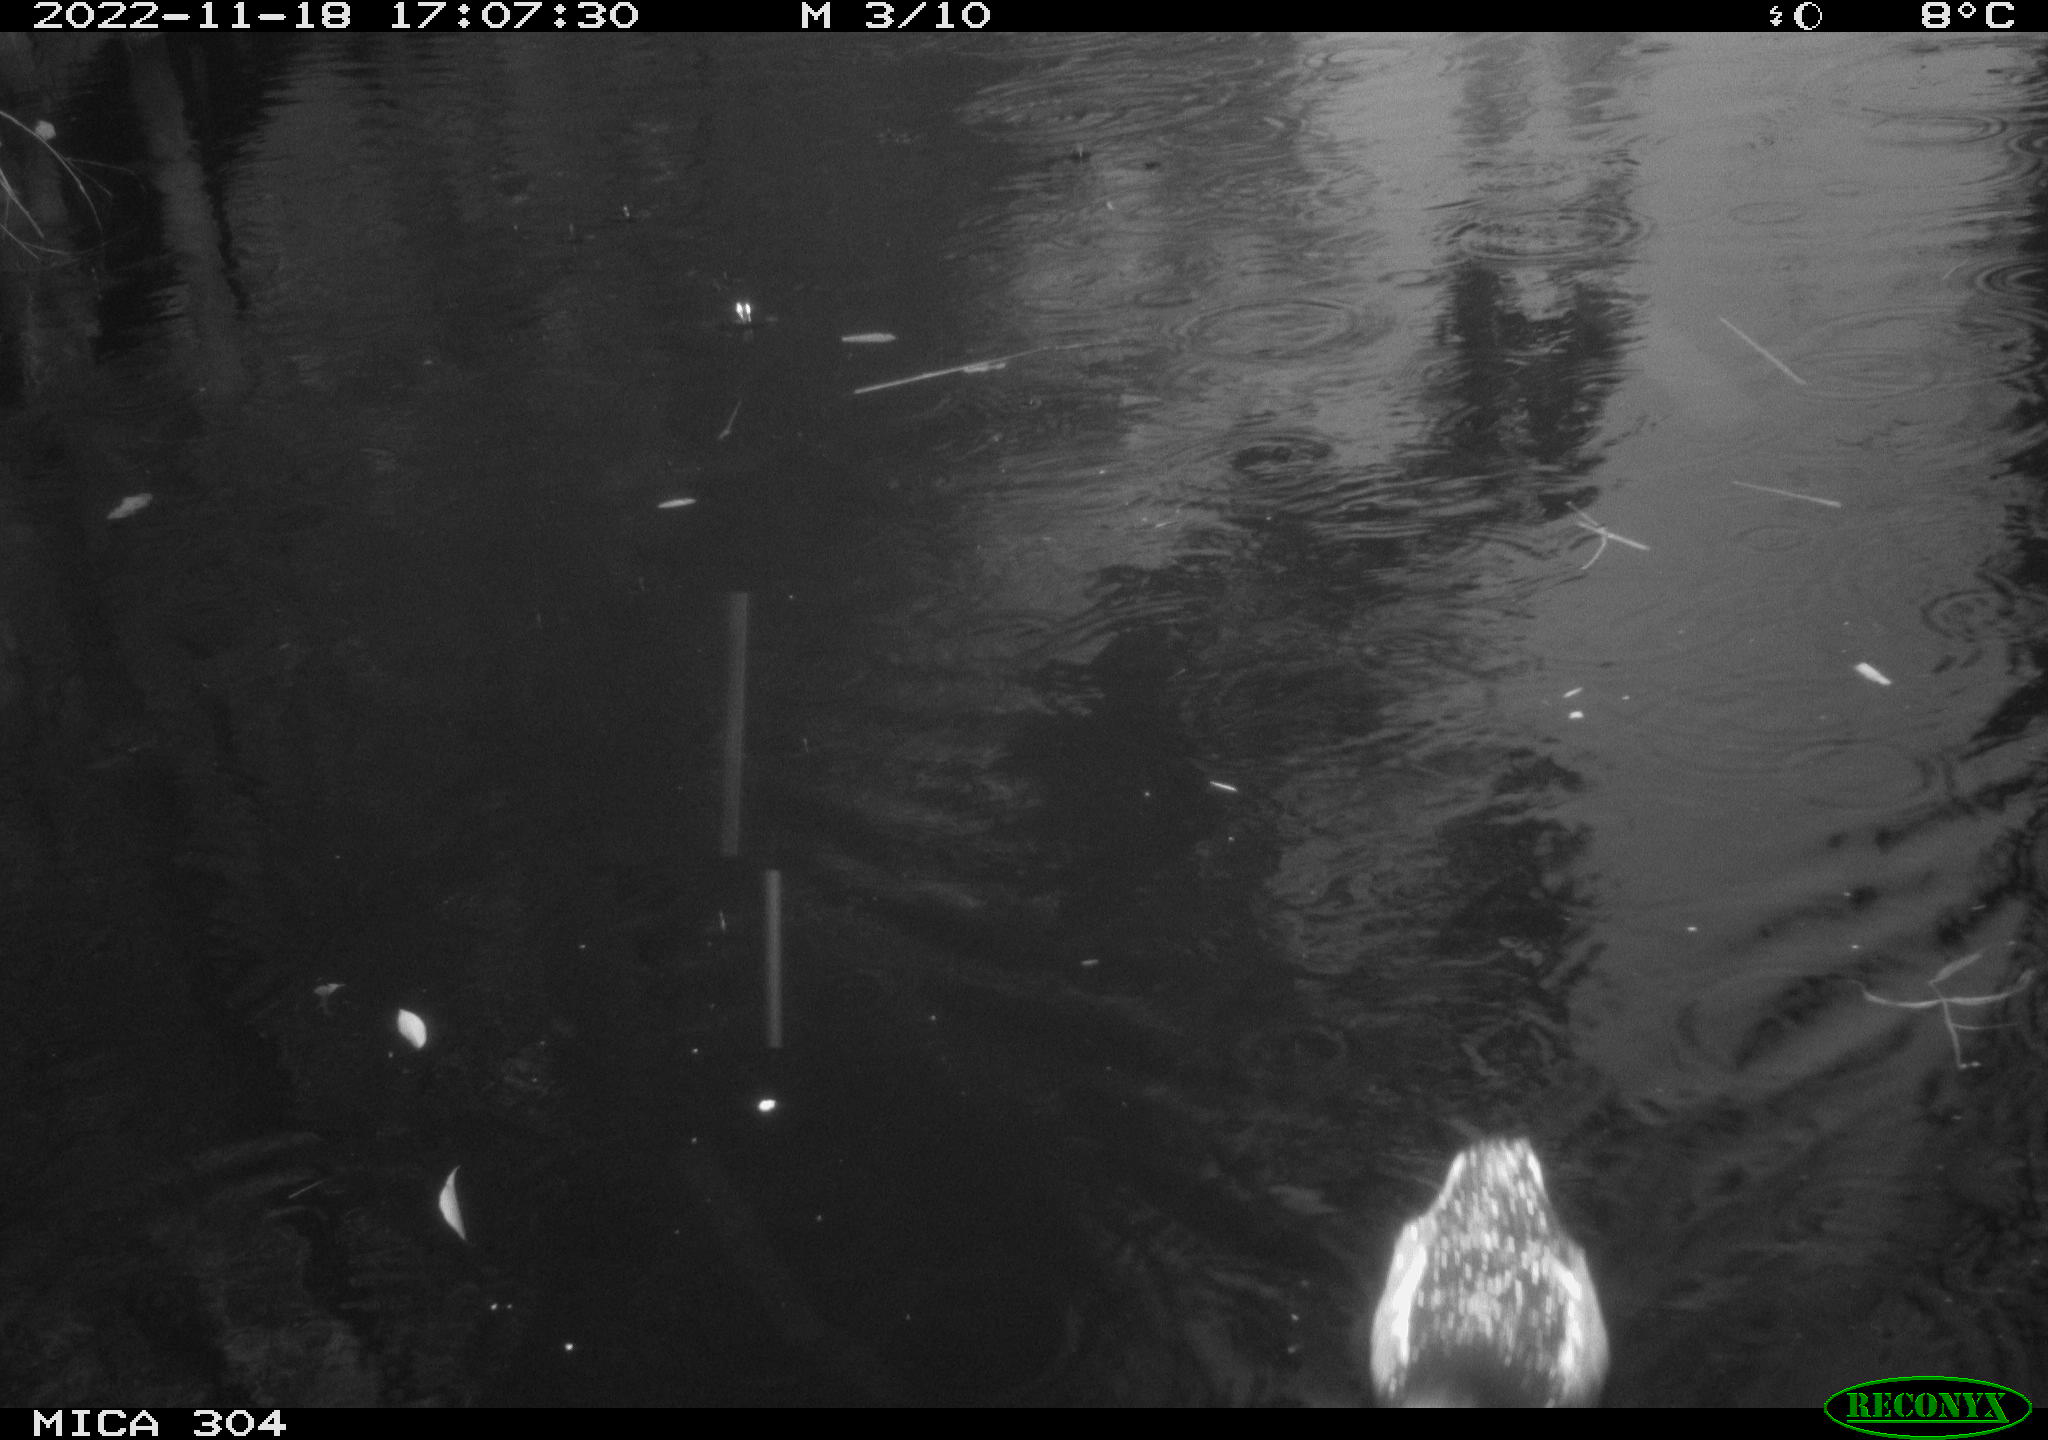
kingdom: Animalia
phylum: Chordata
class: Aves
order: Gruiformes
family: Rallidae
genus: Gallinula
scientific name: Gallinula chloropus
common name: Common moorhen
